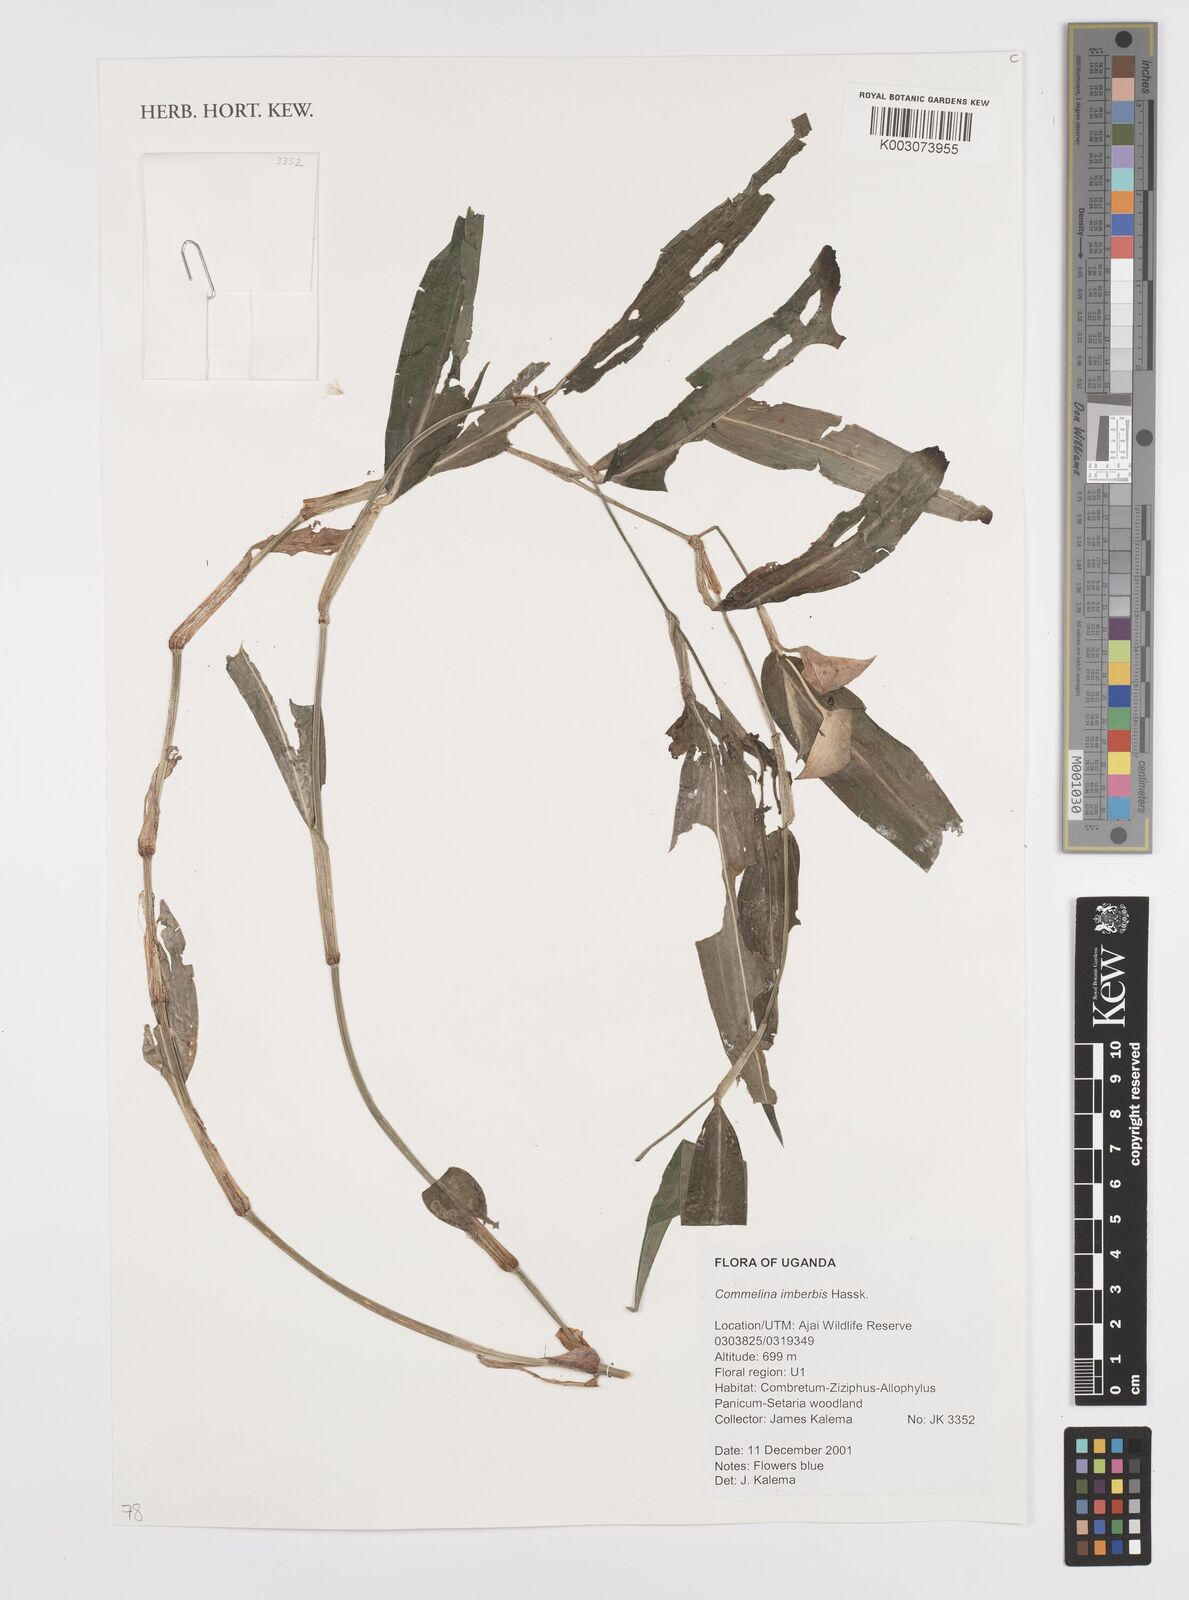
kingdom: Plantae
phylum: Tracheophyta
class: Liliopsida
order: Commelinales
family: Commelinaceae
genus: Commelina
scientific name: Commelina imberbis
